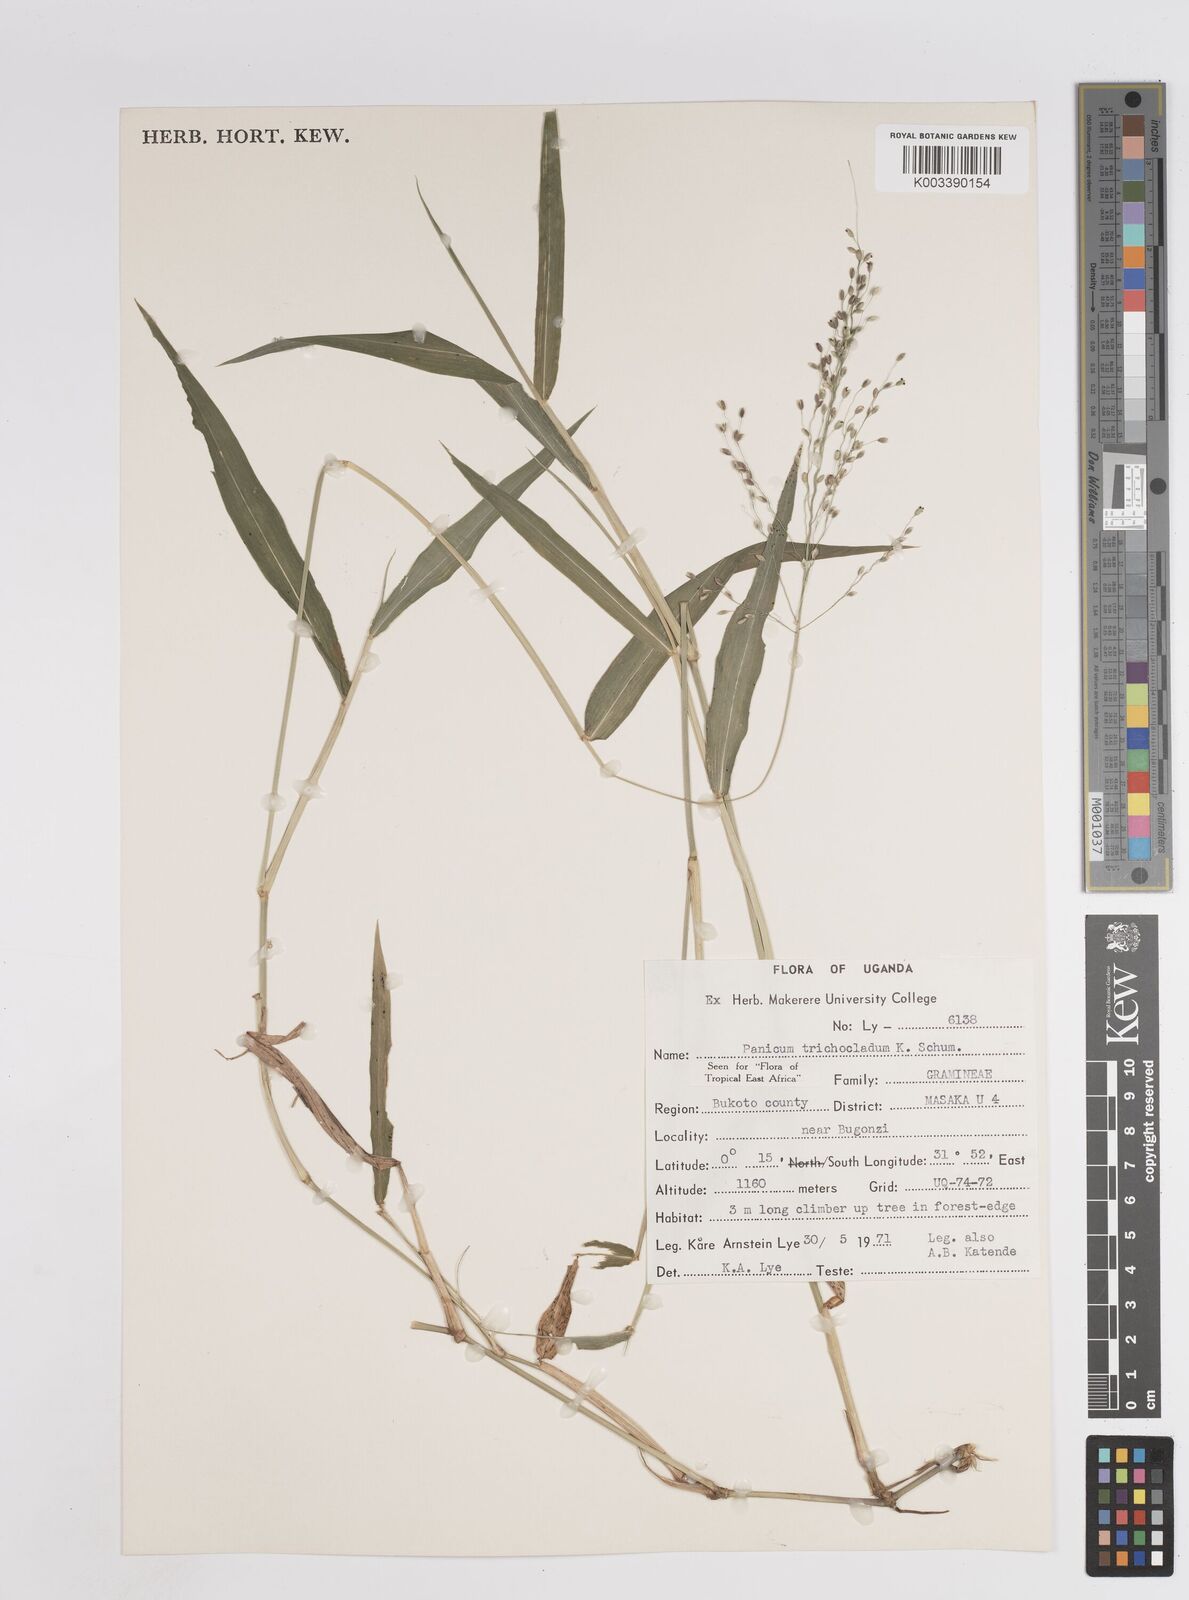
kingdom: Plantae
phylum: Tracheophyta
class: Liliopsida
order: Poales
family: Poaceae
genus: Megathyrsus
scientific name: Megathyrsus maximus
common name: Guineagrass
